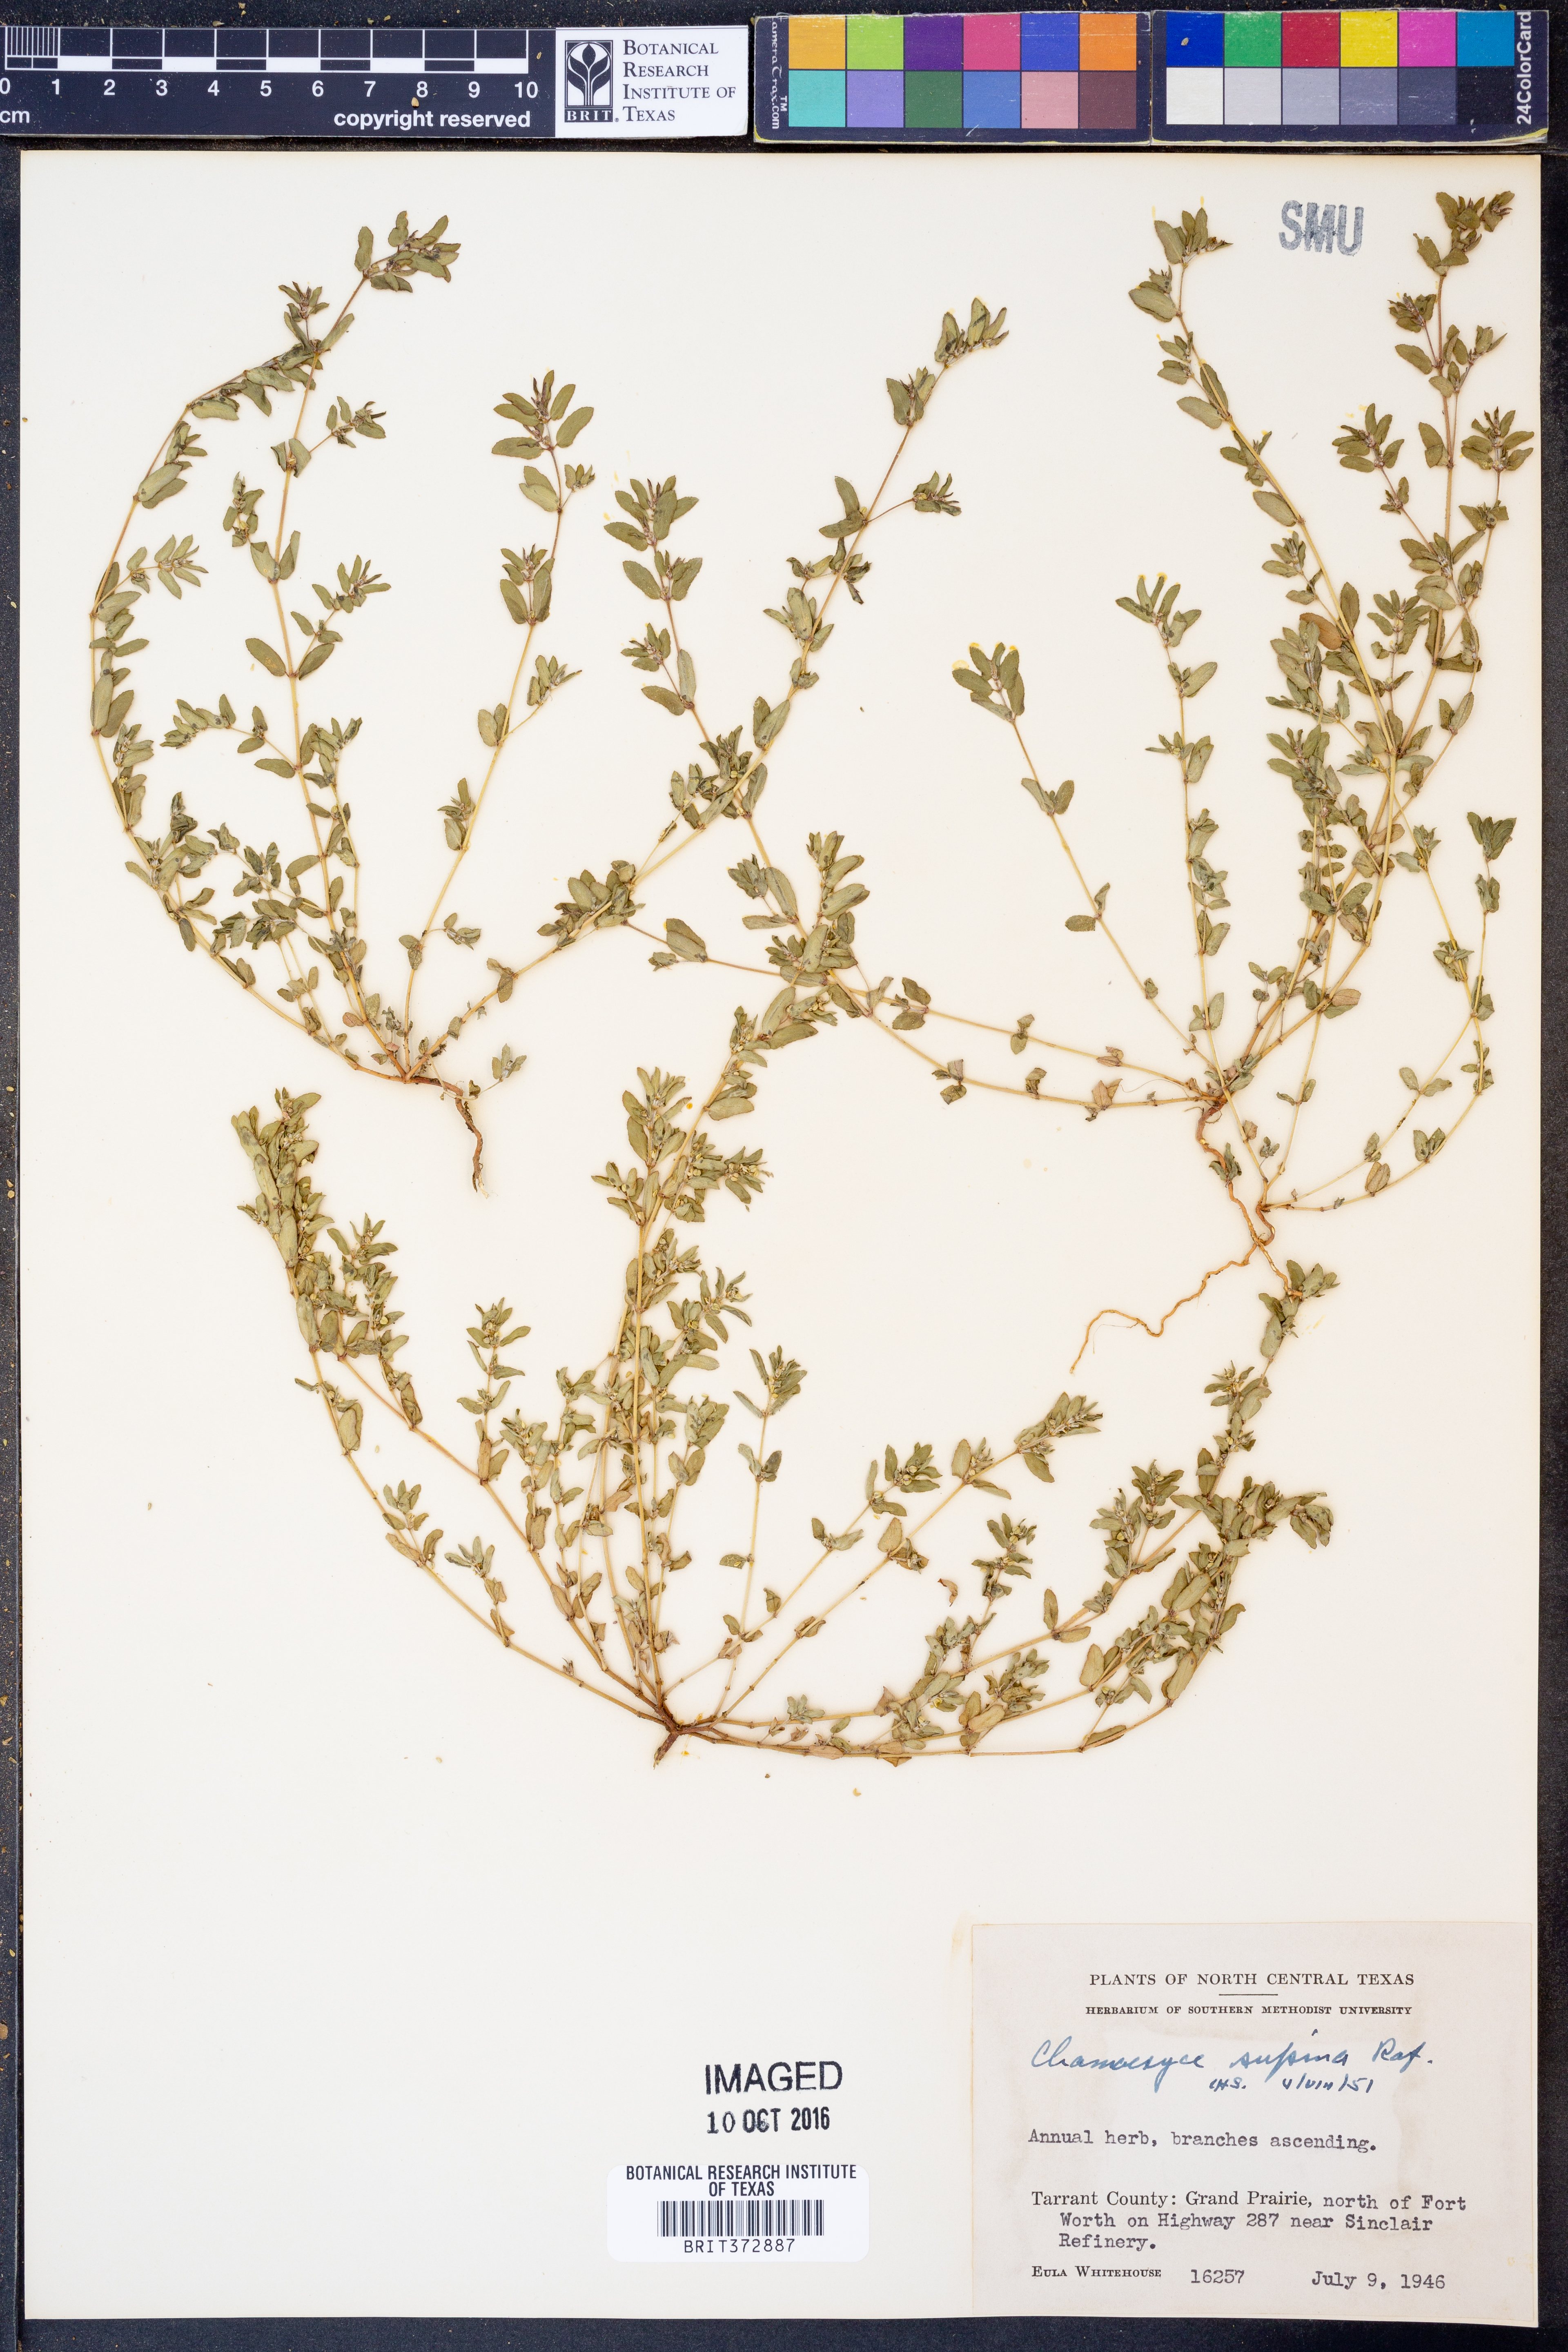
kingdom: Plantae
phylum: Tracheophyta
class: Magnoliopsida
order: Malpighiales
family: Euphorbiaceae
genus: Euphorbia
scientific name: Euphorbia maculata
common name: Spotted spurge
